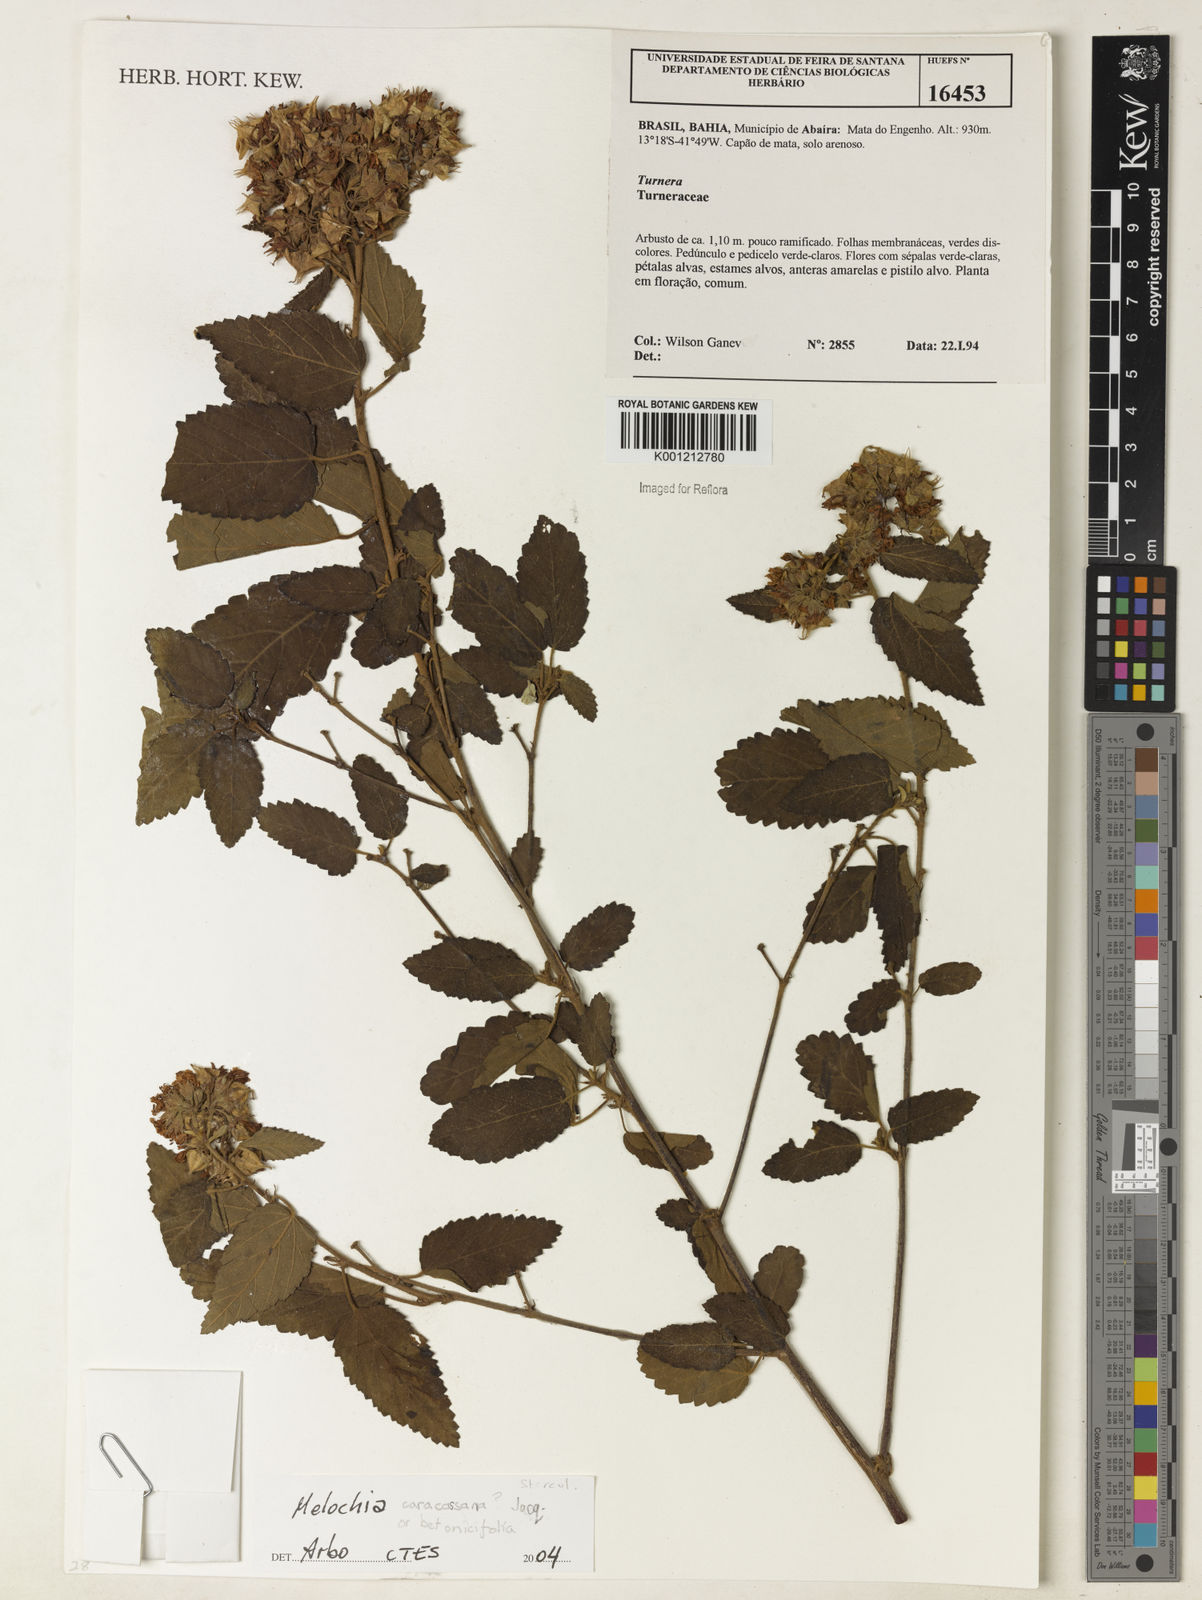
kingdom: Plantae
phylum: Tracheophyta
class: Magnoliopsida
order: Malvales
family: Malvaceae
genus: Melochia
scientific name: Melochia betonicifolia
